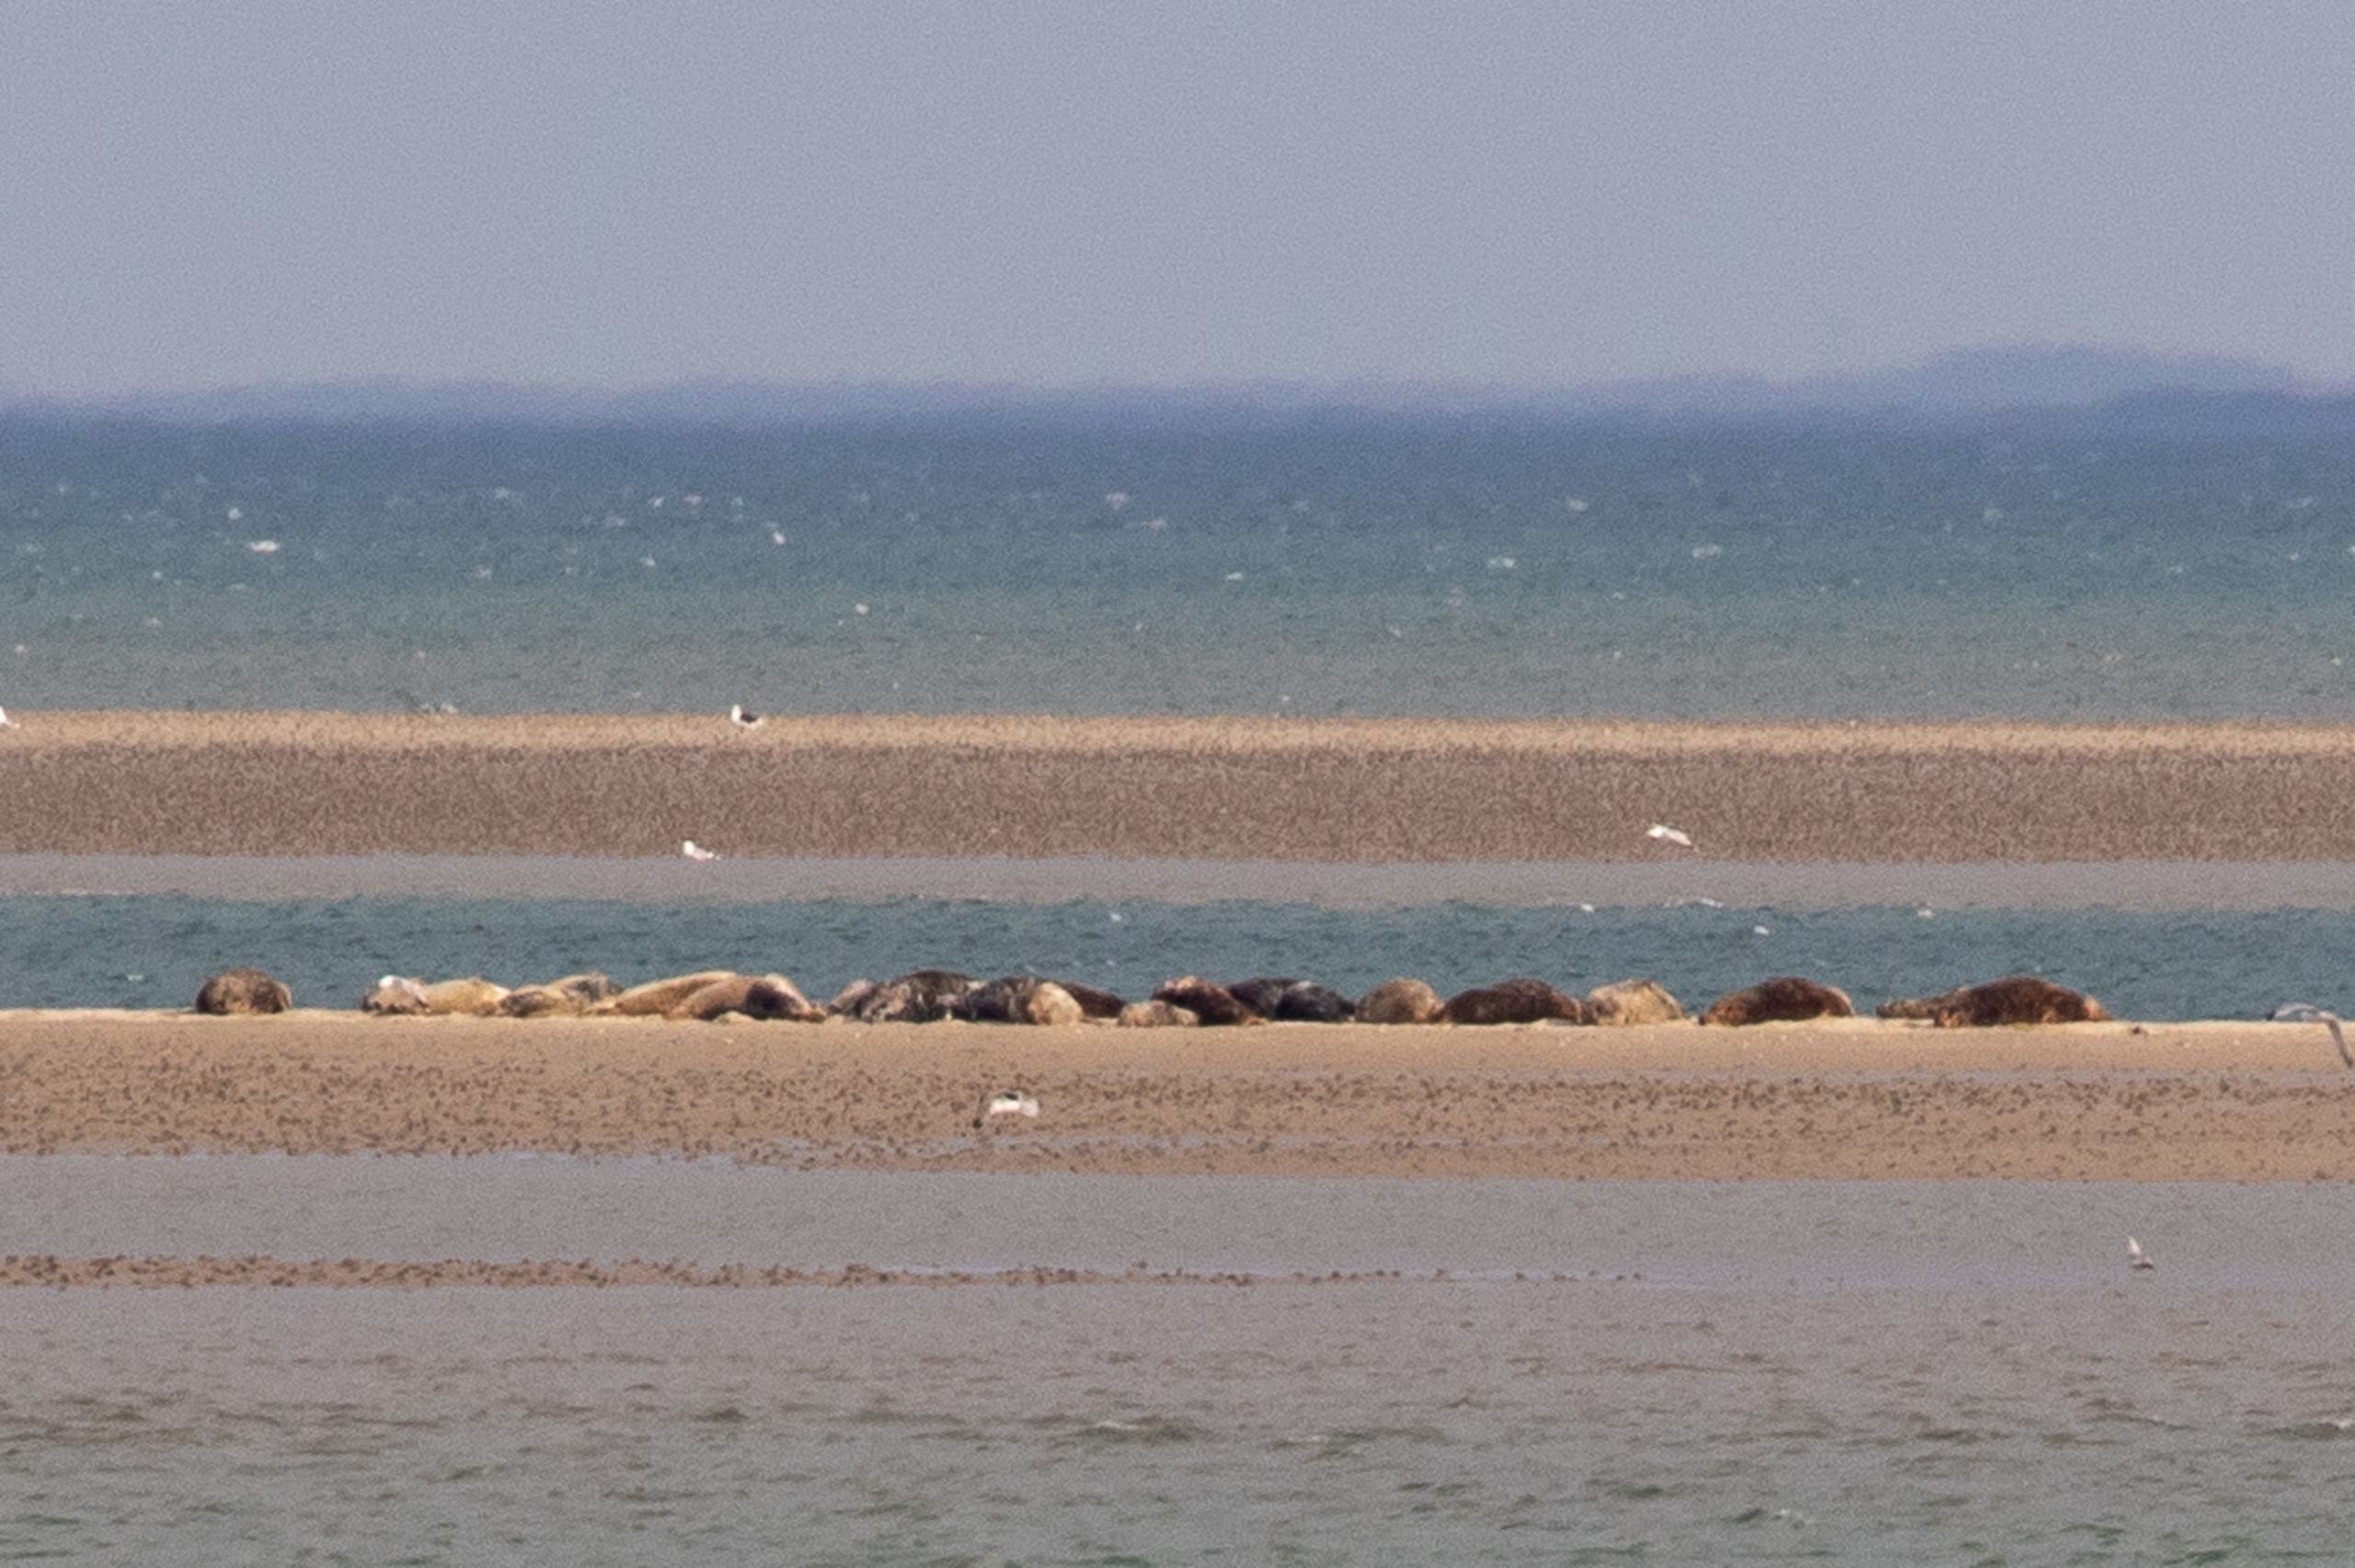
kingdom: Animalia
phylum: Chordata
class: Mammalia
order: Carnivora
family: Phocidae
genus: Halichoerus
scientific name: Halichoerus grypus
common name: Gråsæl
